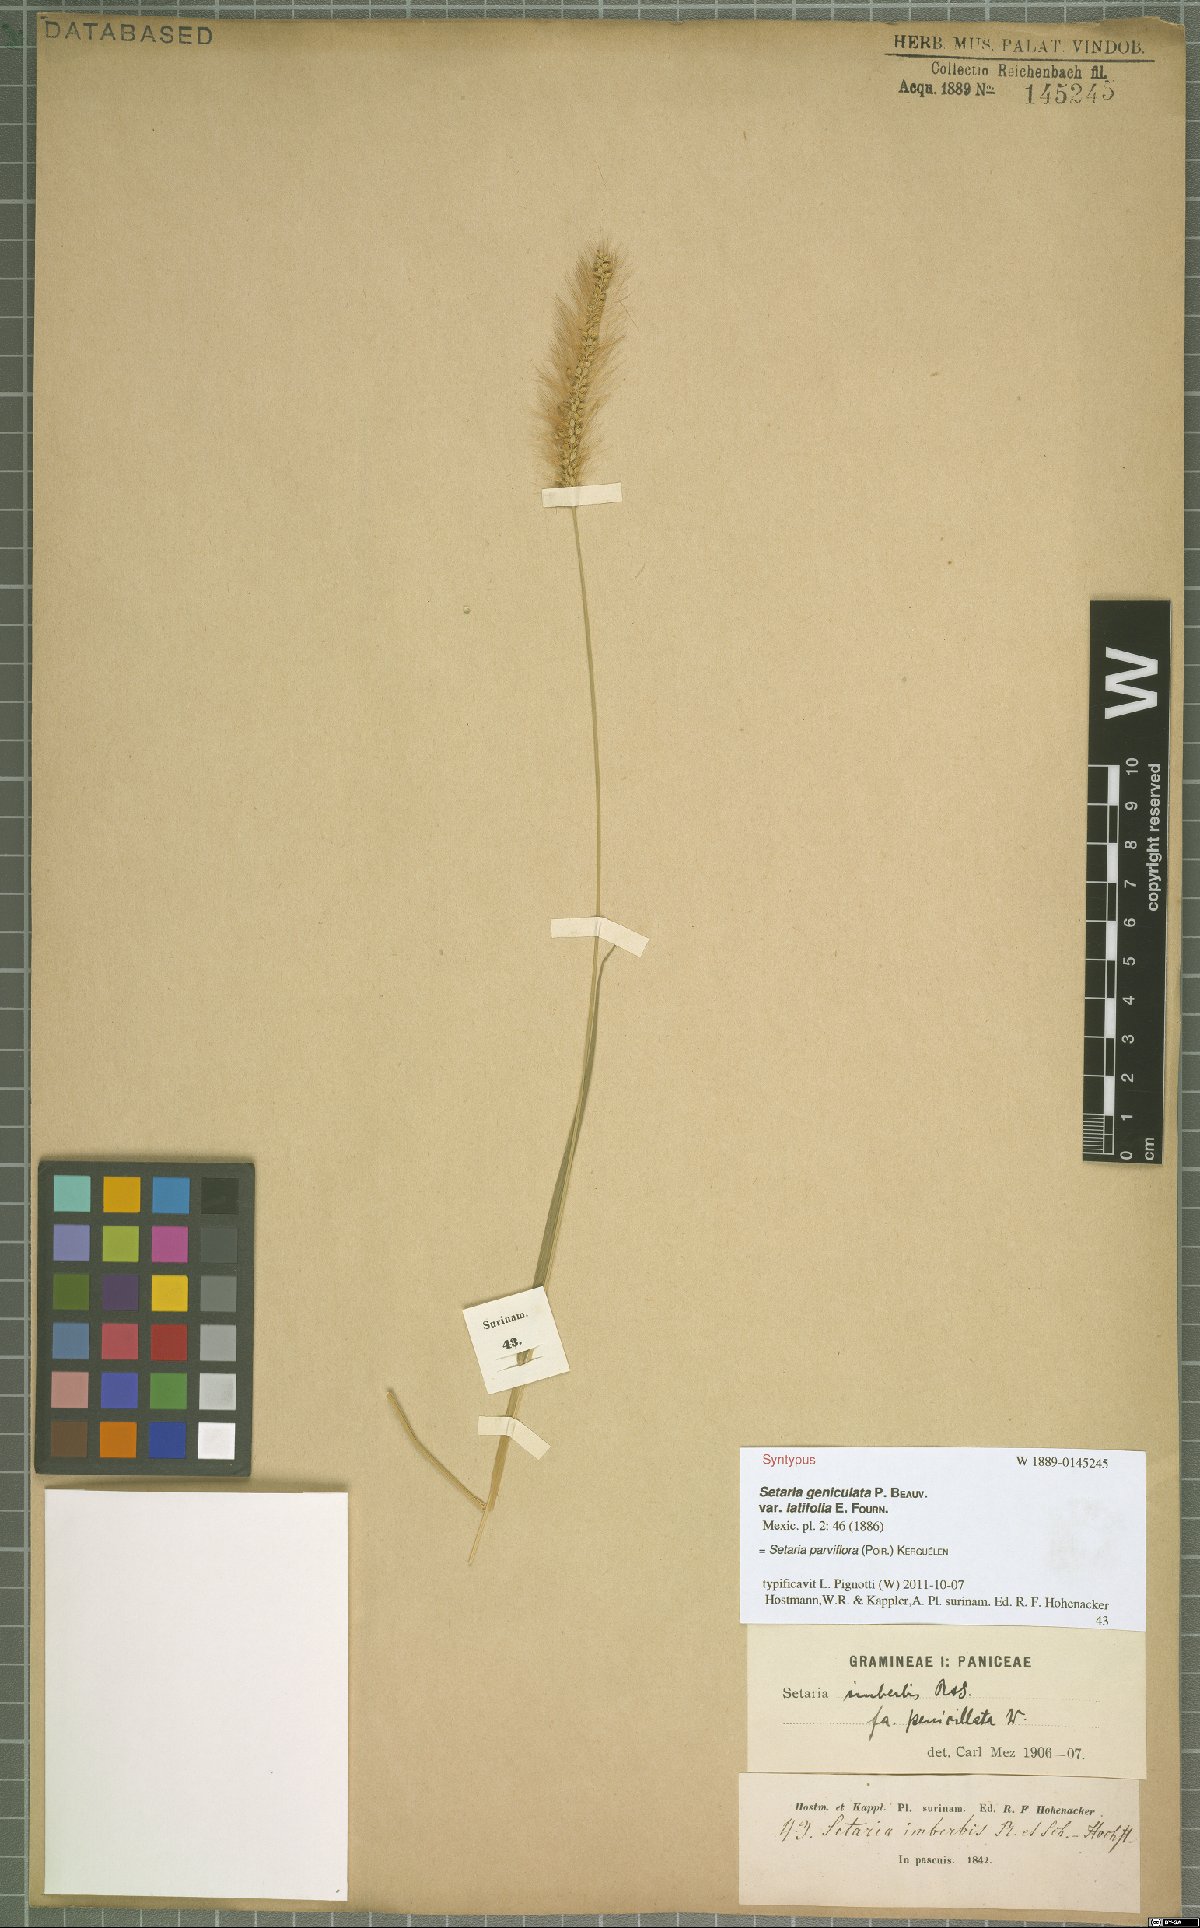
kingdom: Plantae
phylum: Tracheophyta
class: Liliopsida
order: Poales
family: Poaceae
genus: Setaria
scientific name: Setaria parviflora
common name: Knotroot bristle-grass
